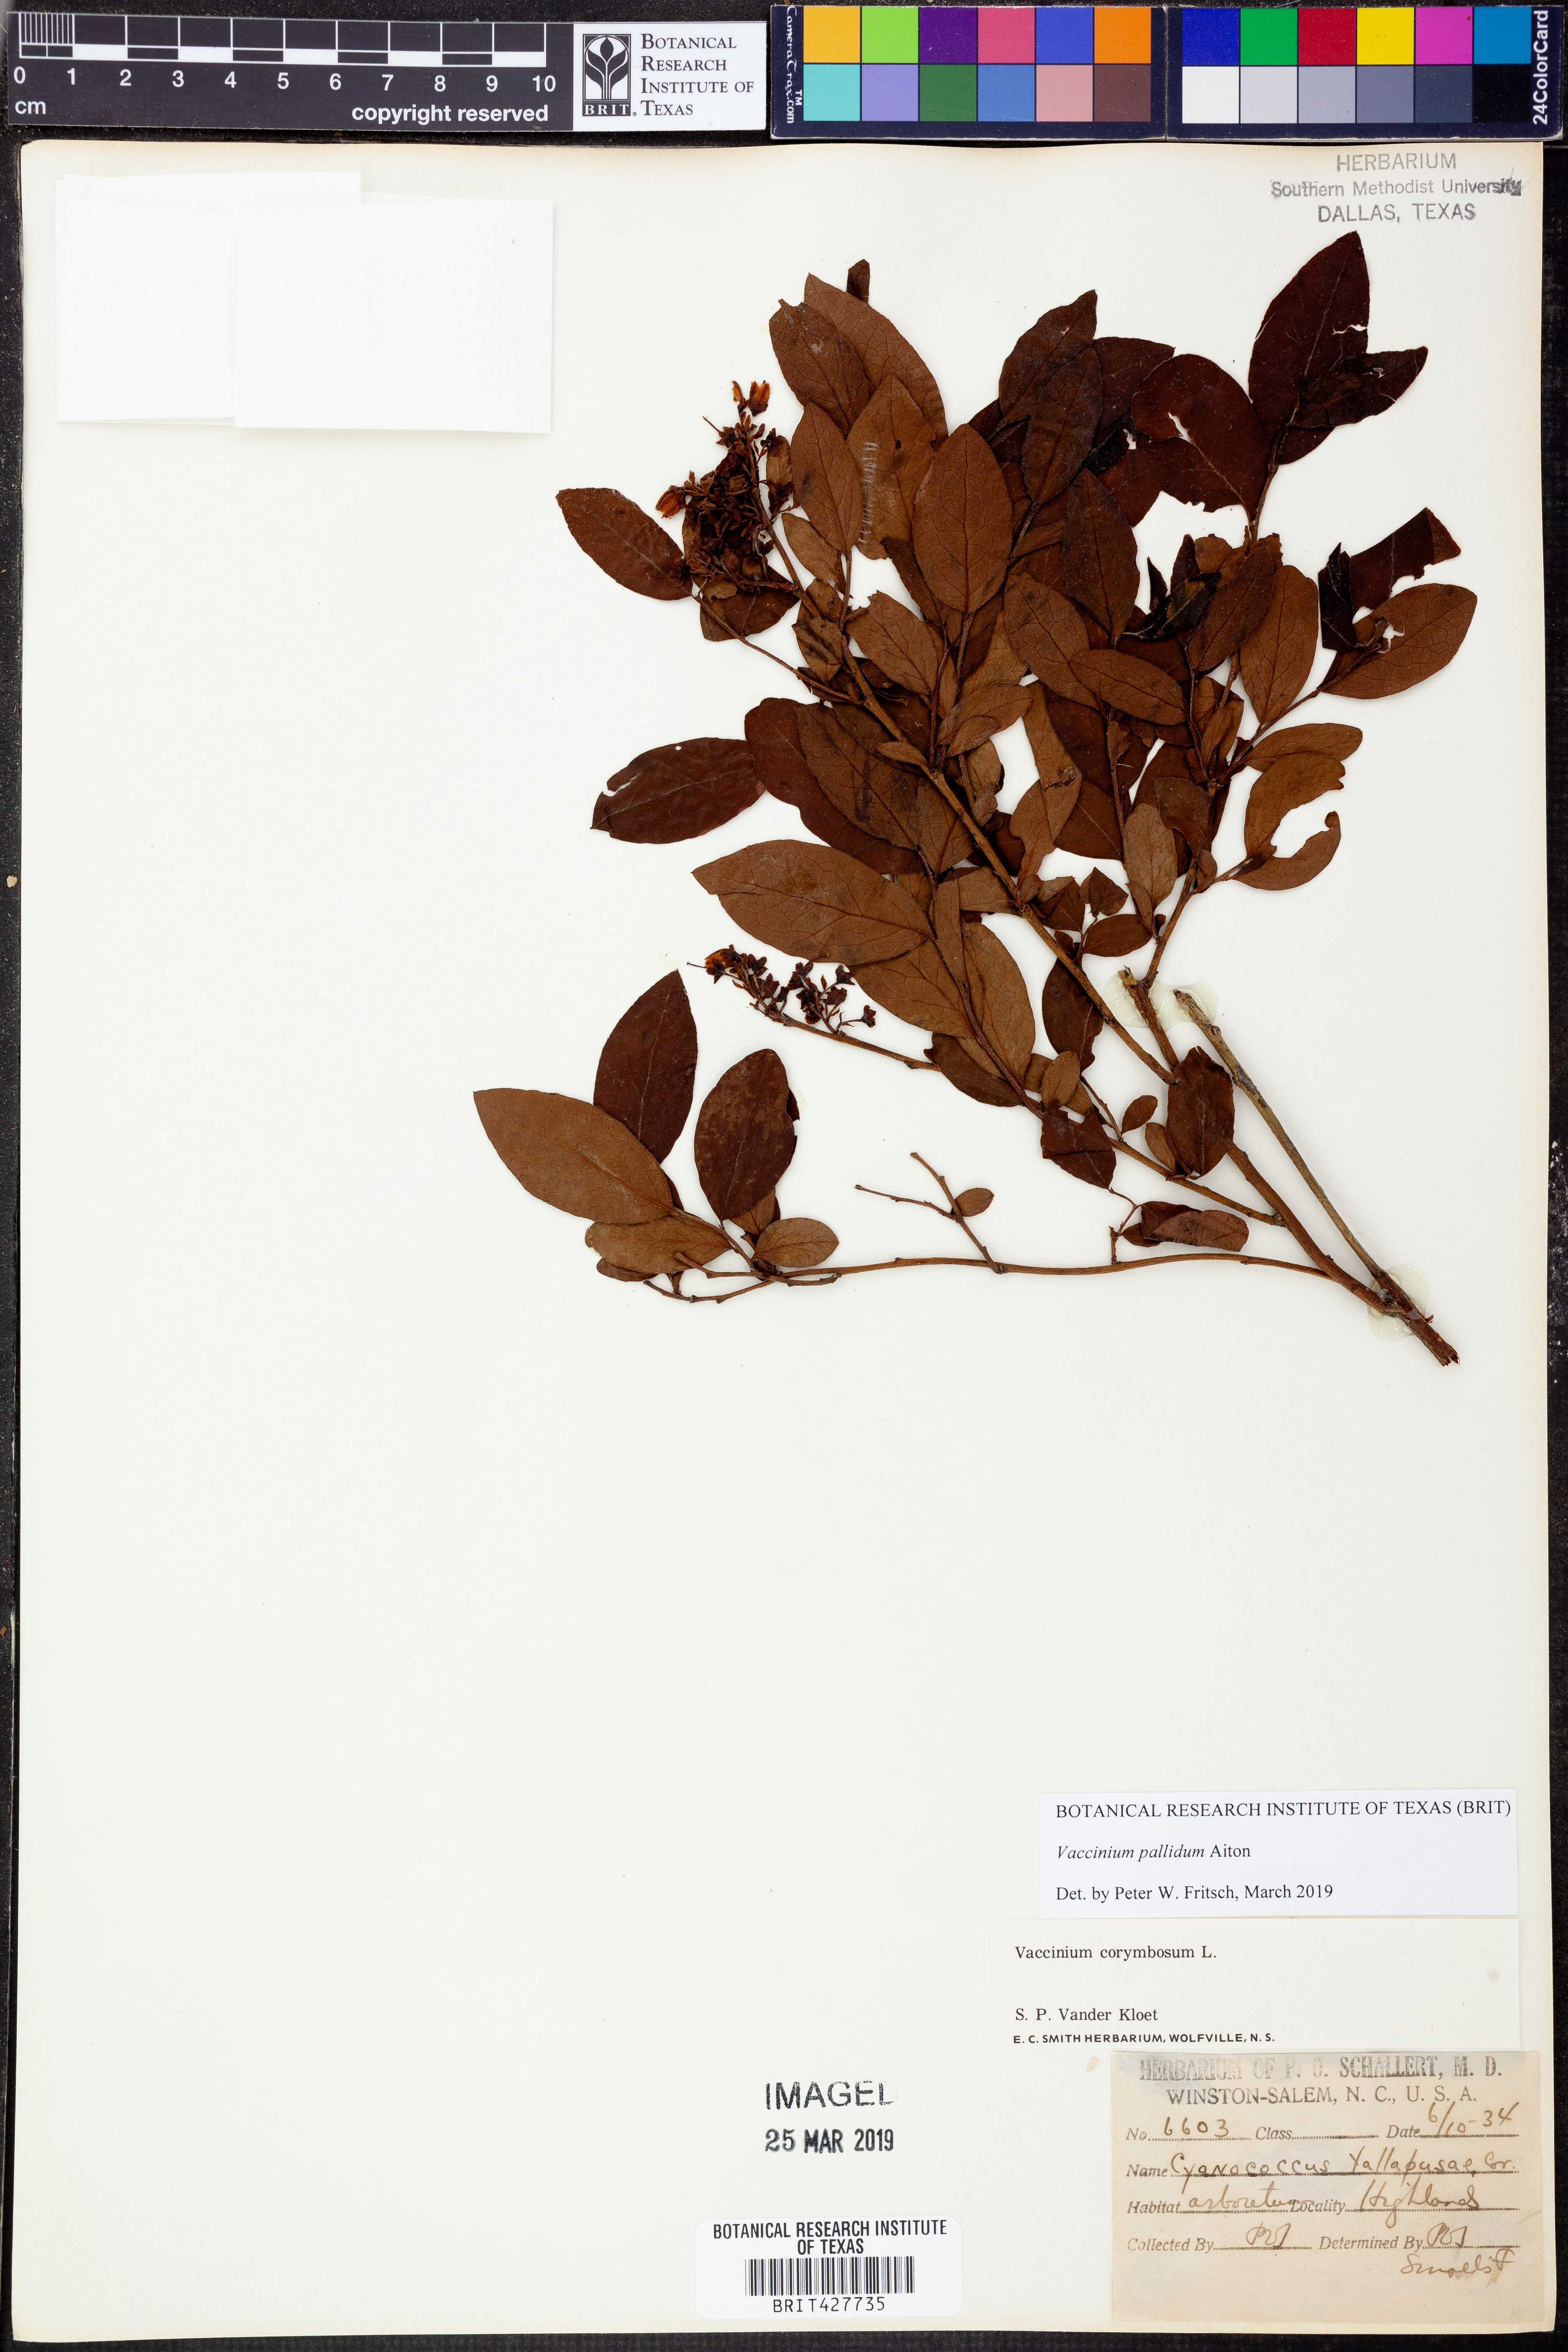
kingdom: Plantae
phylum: Tracheophyta
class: Magnoliopsida
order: Ericales
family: Ericaceae
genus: Vaccinium
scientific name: Vaccinium pallidum
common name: Blue ridge blueberry
